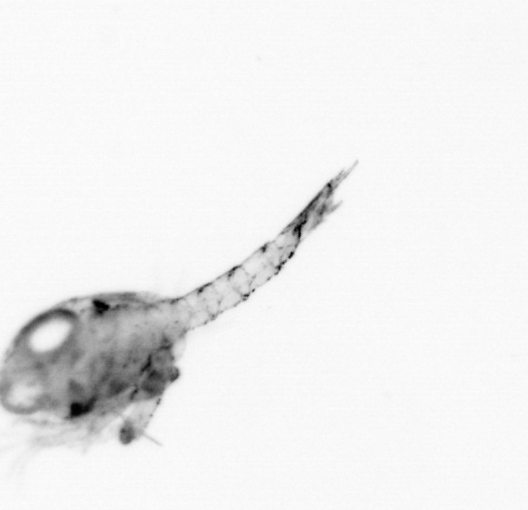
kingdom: Animalia
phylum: Arthropoda
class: Malacostraca
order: Decapoda
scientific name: Decapoda
